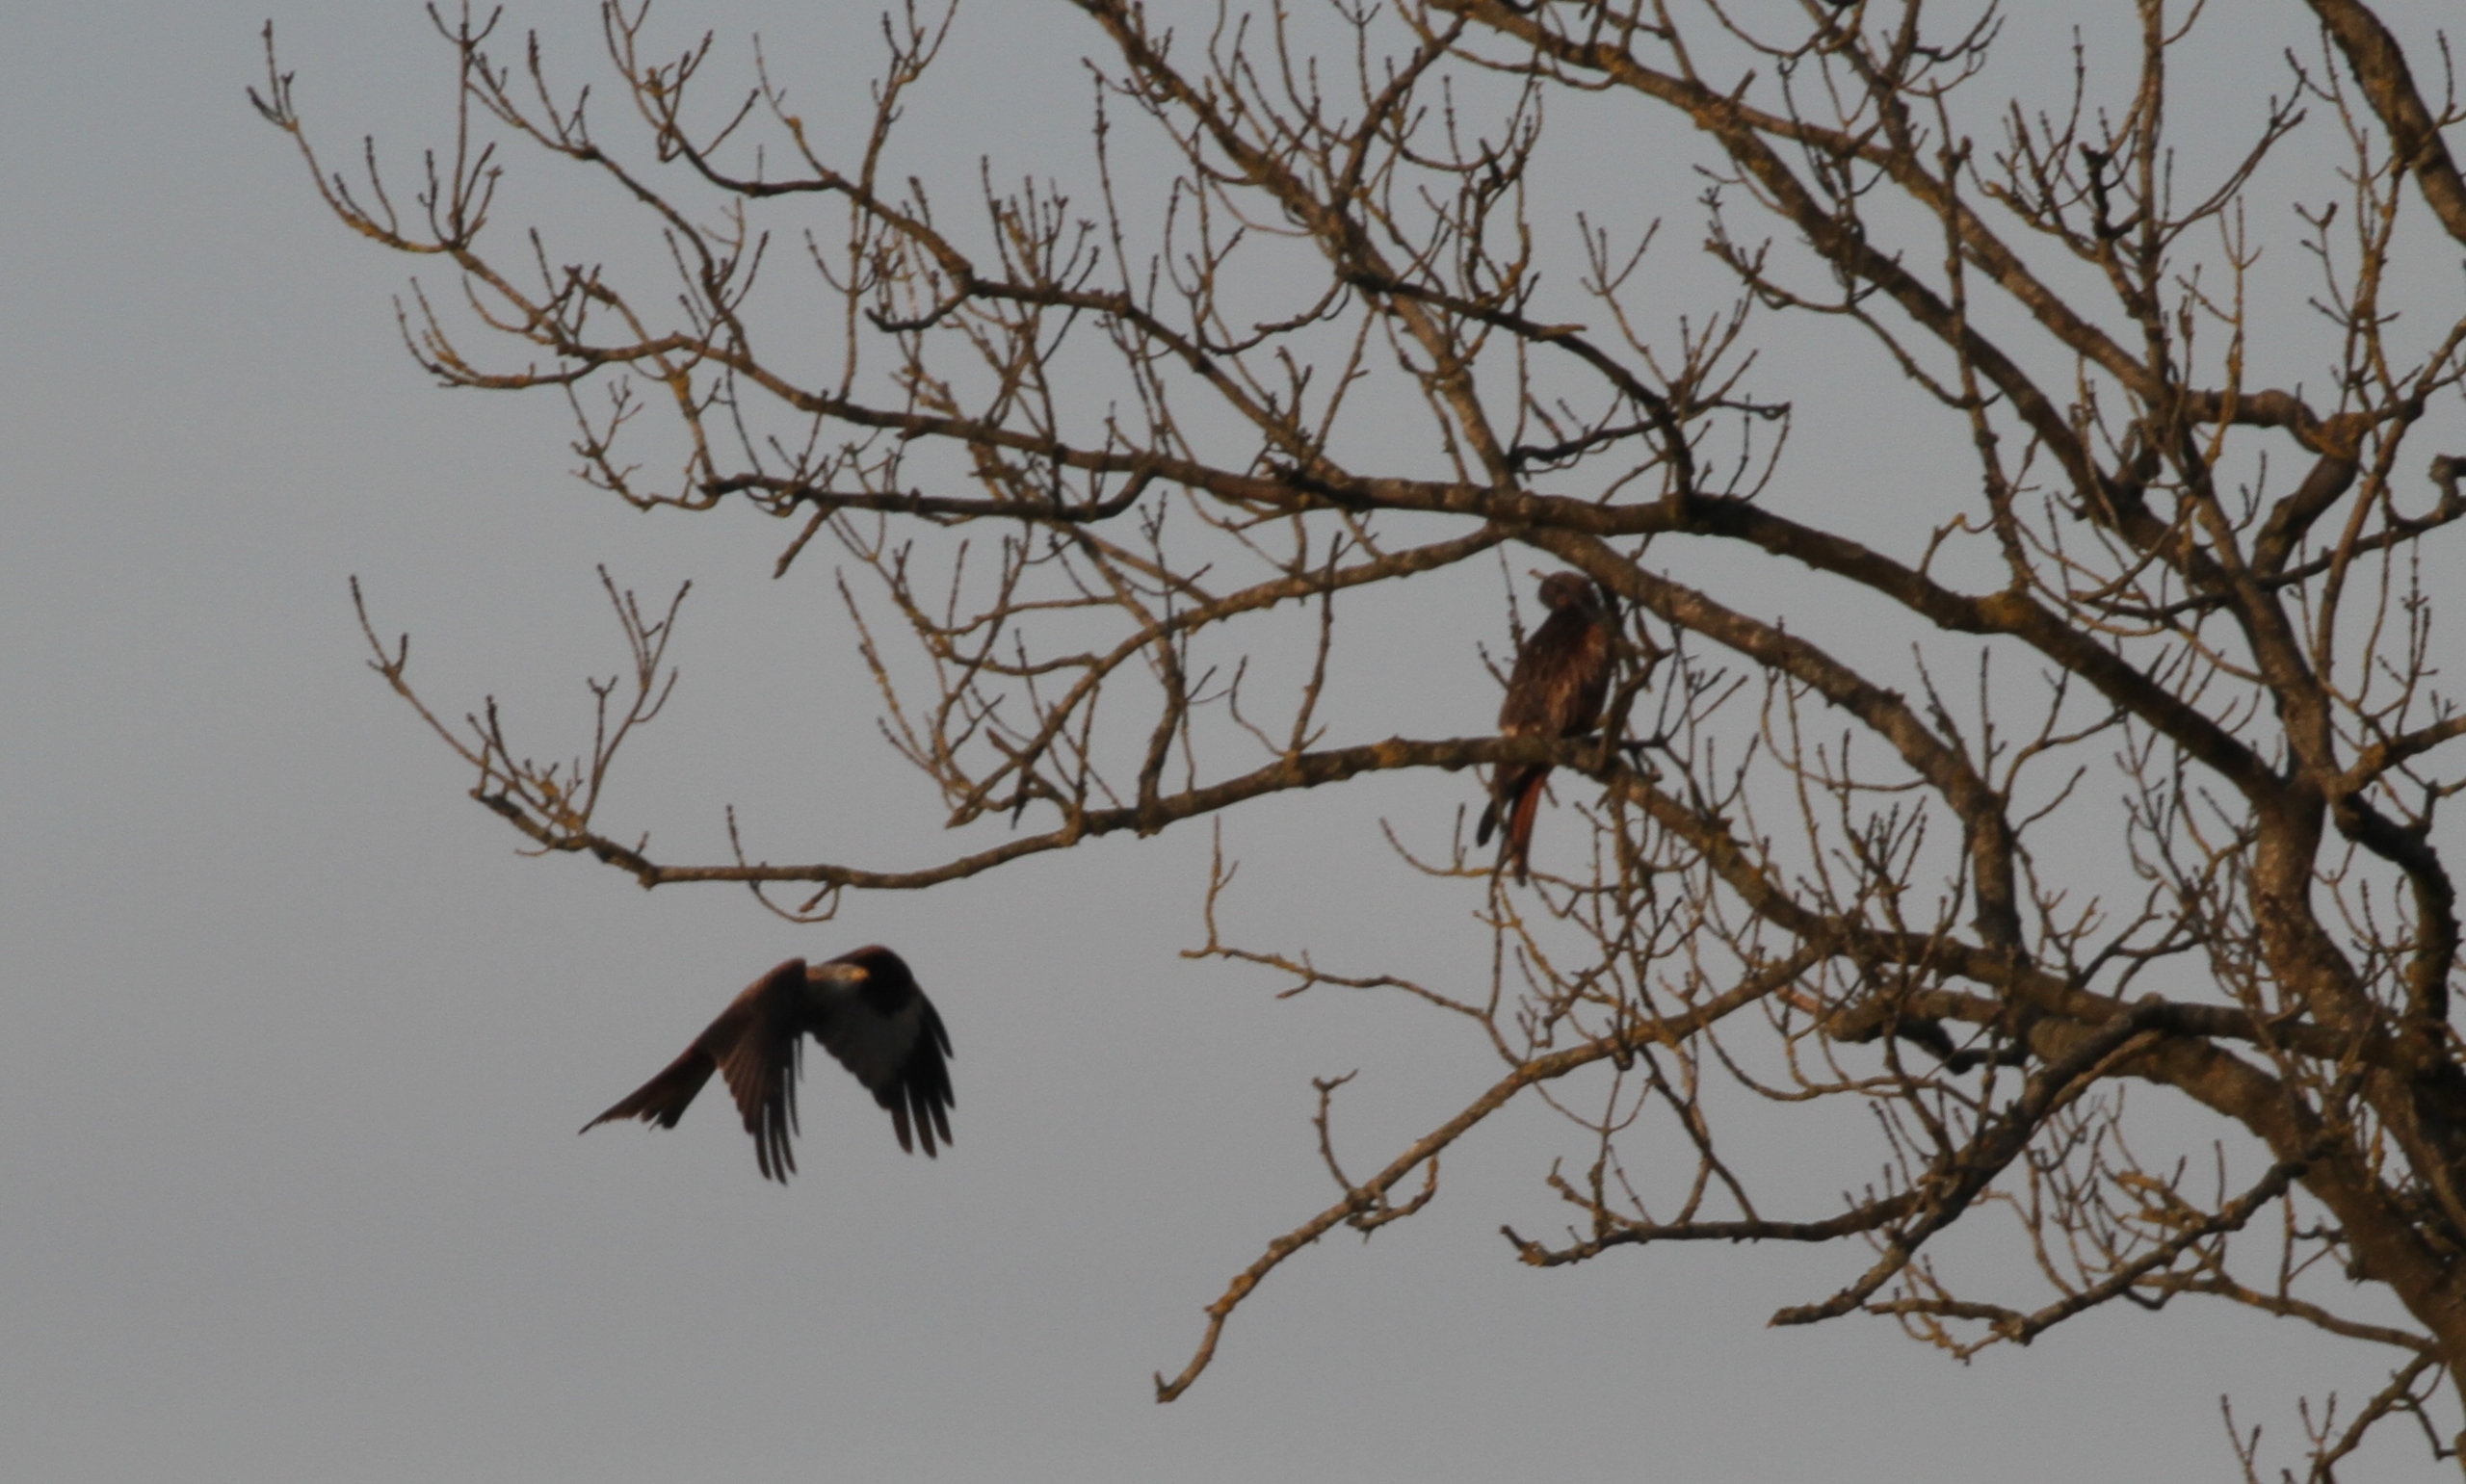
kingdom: Animalia
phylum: Chordata
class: Aves
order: Accipitriformes
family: Accipitridae
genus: Milvus
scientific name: Milvus milvus
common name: Rød glente
